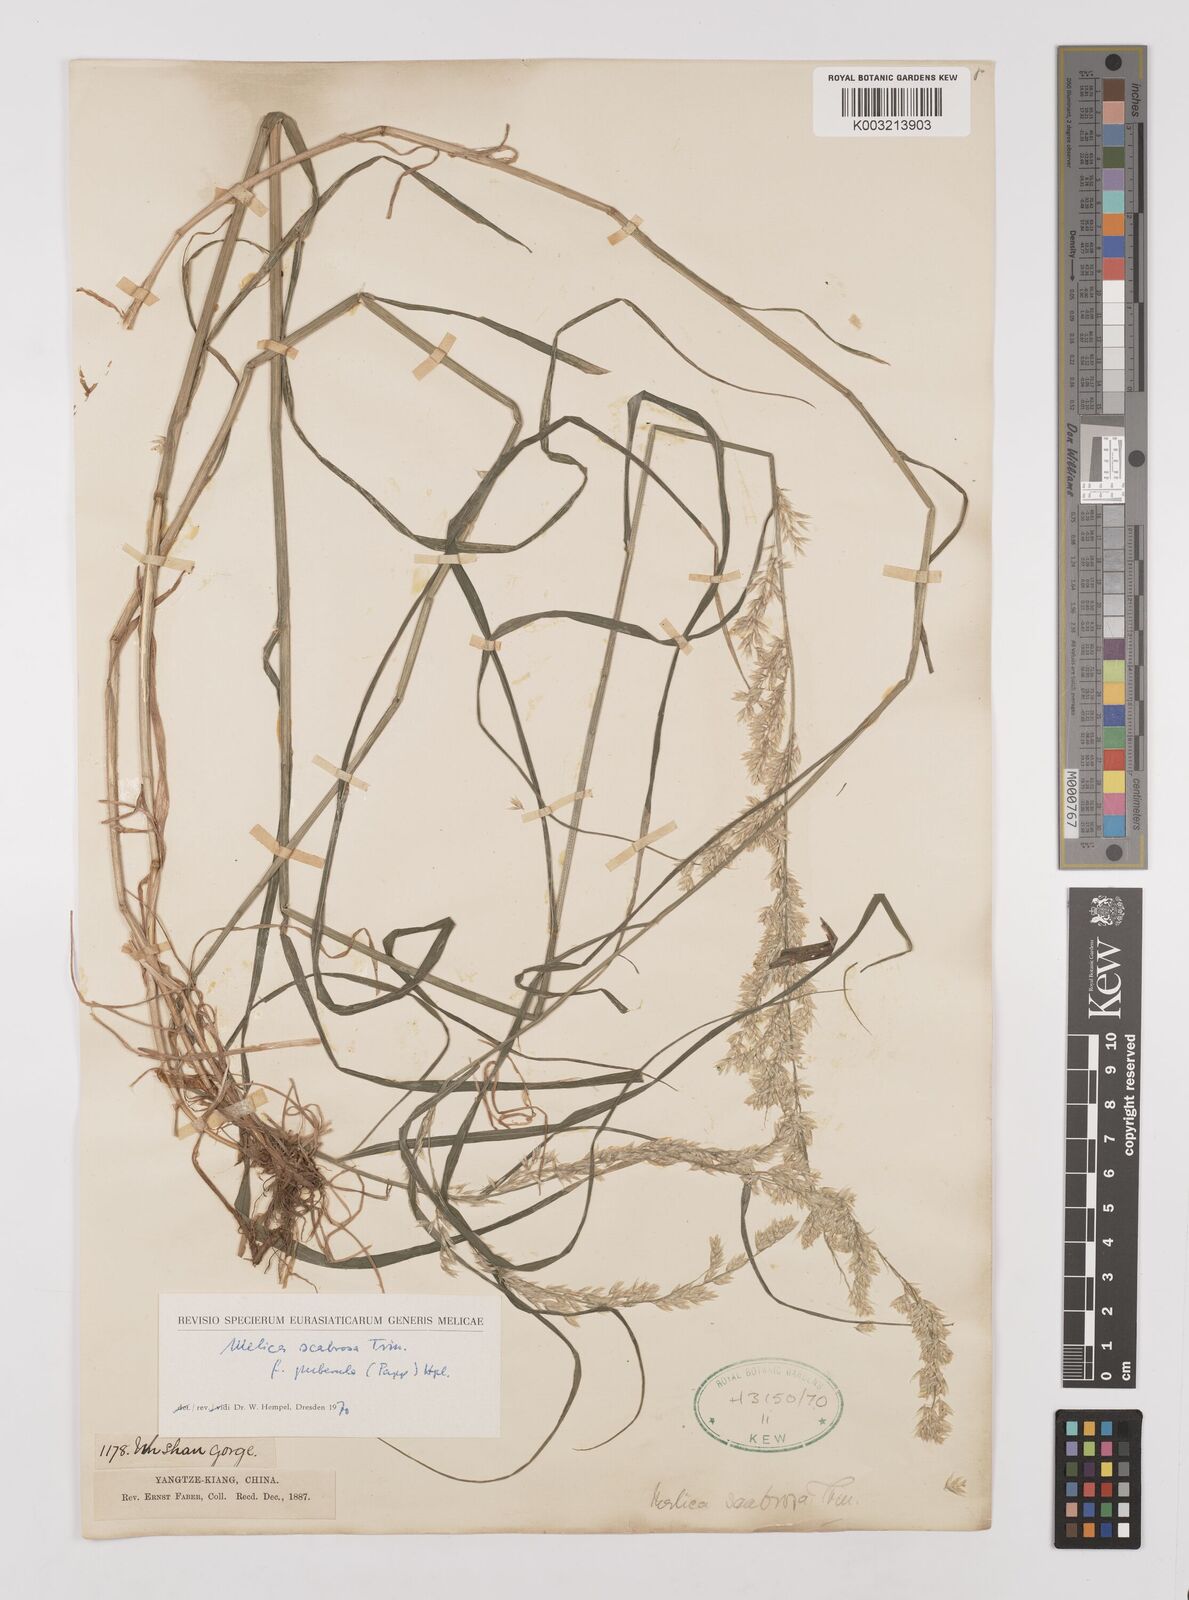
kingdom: Plantae
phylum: Tracheophyta
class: Liliopsida
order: Poales
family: Poaceae
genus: Melica
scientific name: Melica scabrosa
